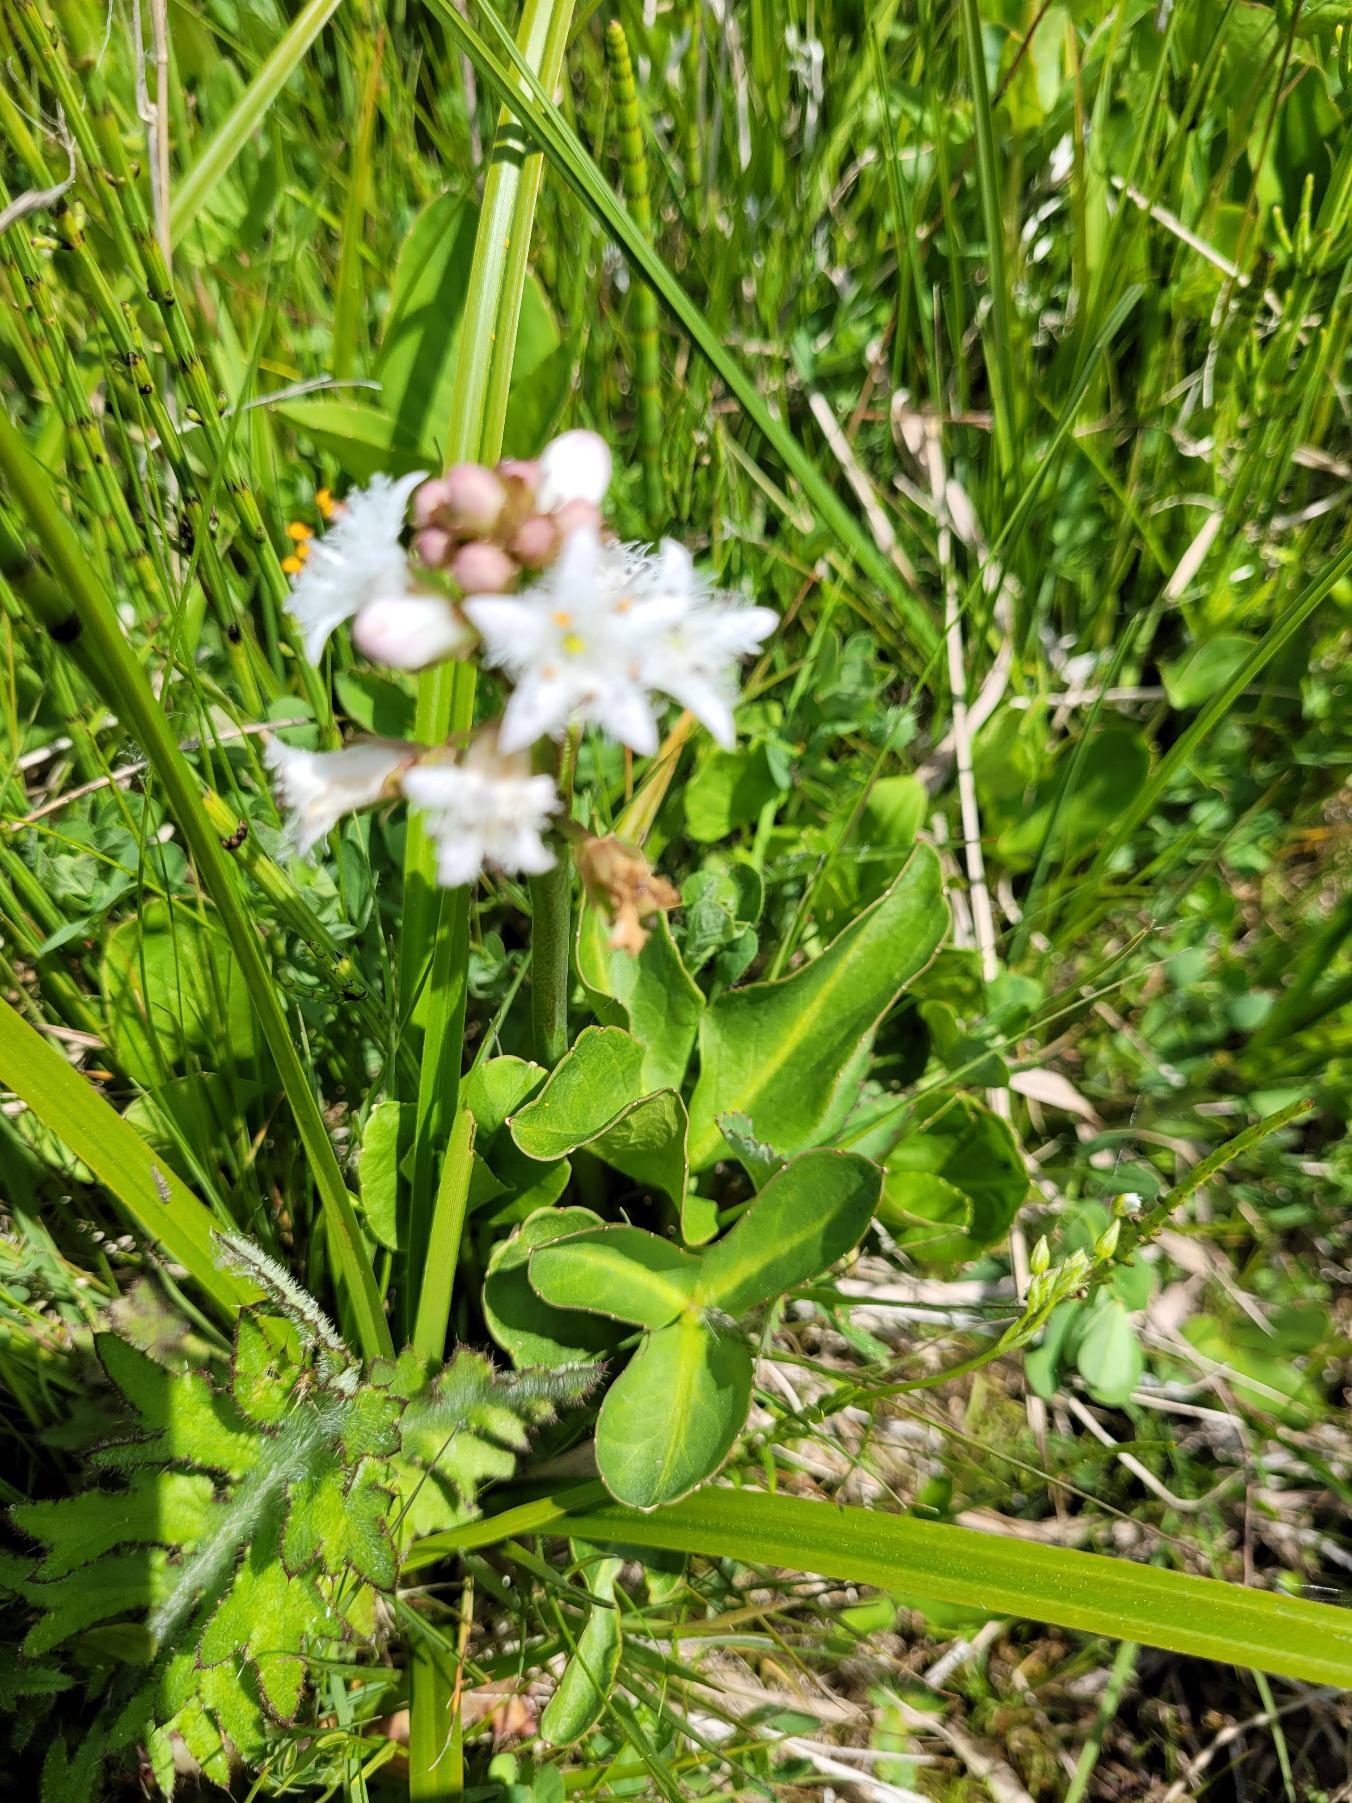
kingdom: Plantae
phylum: Tracheophyta
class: Magnoliopsida
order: Asterales
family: Menyanthaceae
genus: Menyanthes
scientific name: Menyanthes trifoliata
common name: Bukkeblad
